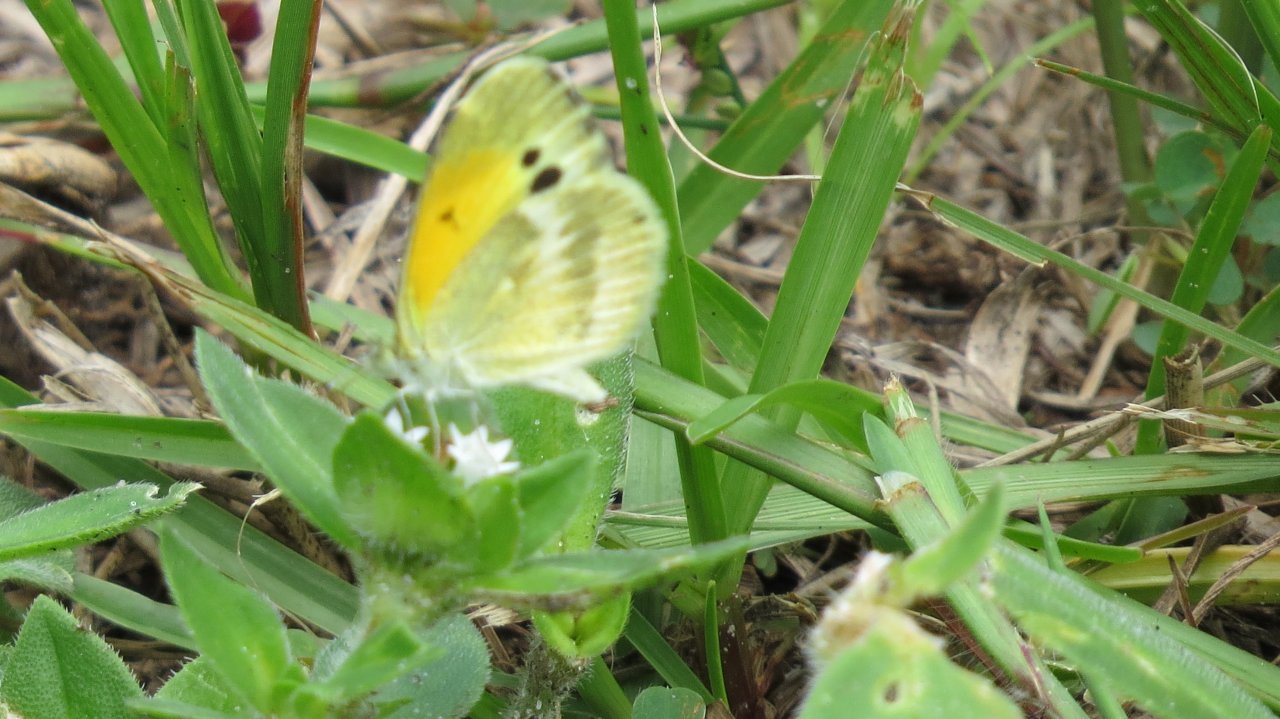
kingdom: Animalia
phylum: Arthropoda
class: Insecta
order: Lepidoptera
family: Pieridae
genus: Nathalis
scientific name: Nathalis iole
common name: Dainty Sulphur
